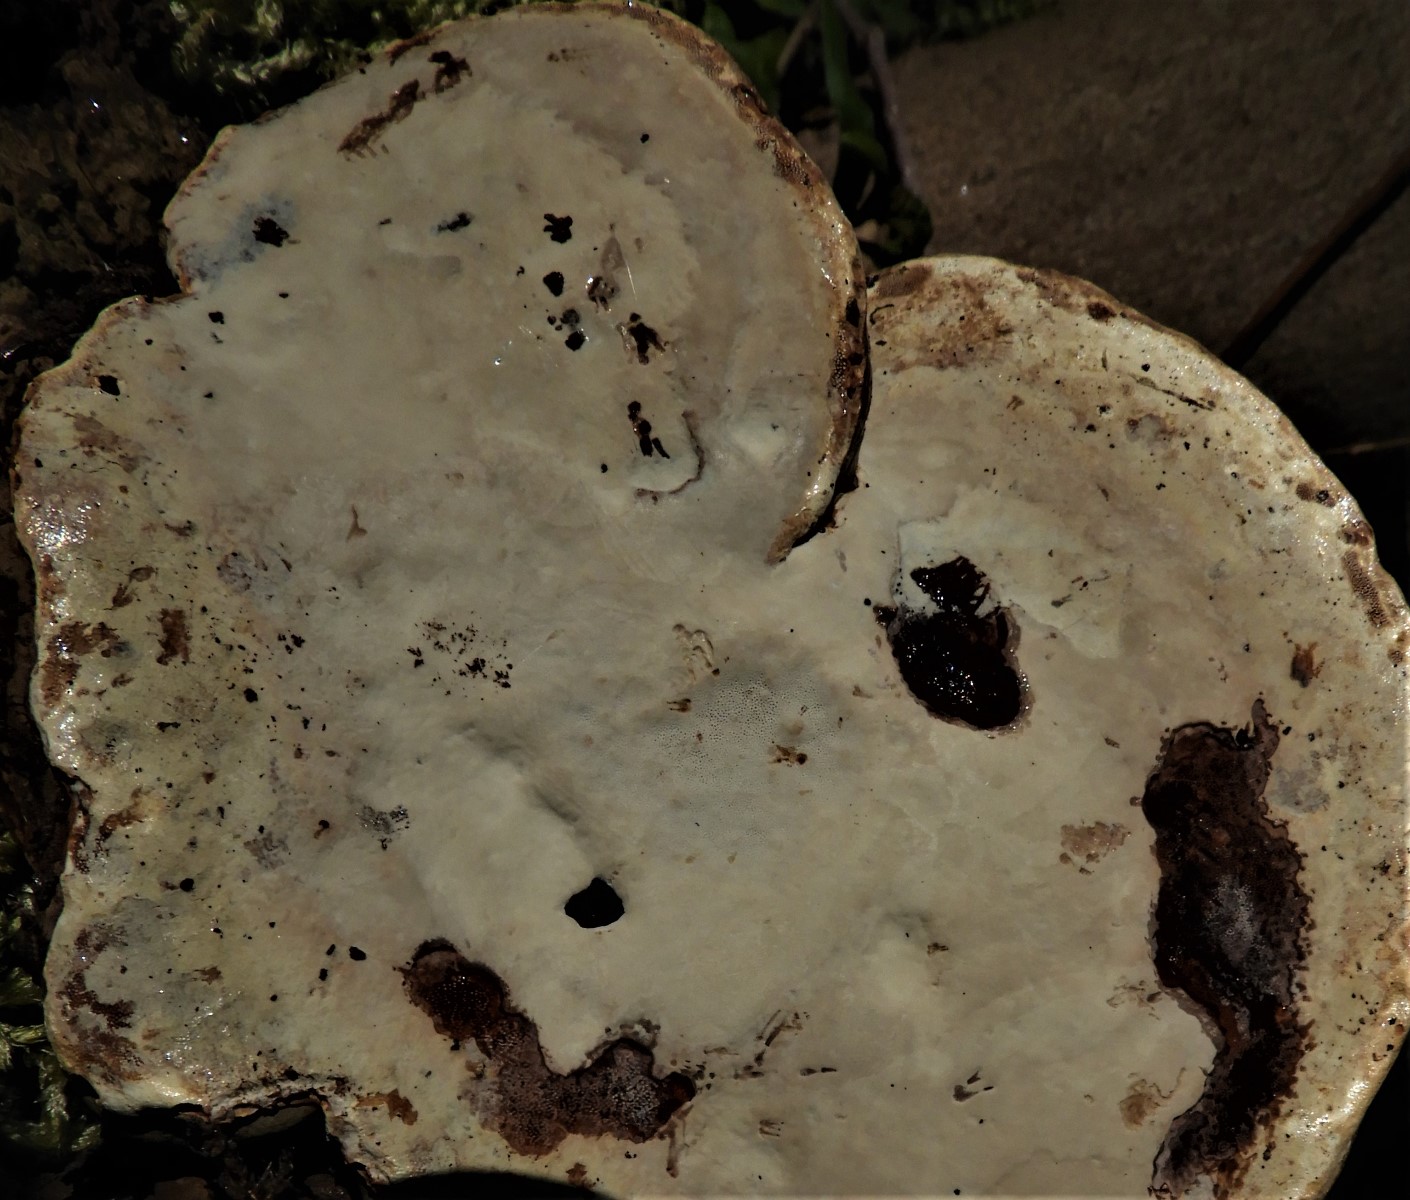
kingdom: Fungi
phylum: Basidiomycota
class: Agaricomycetes
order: Polyporales
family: Polyporaceae
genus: Ganoderma
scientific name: Ganoderma applanatum
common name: flad lakporesvamp
